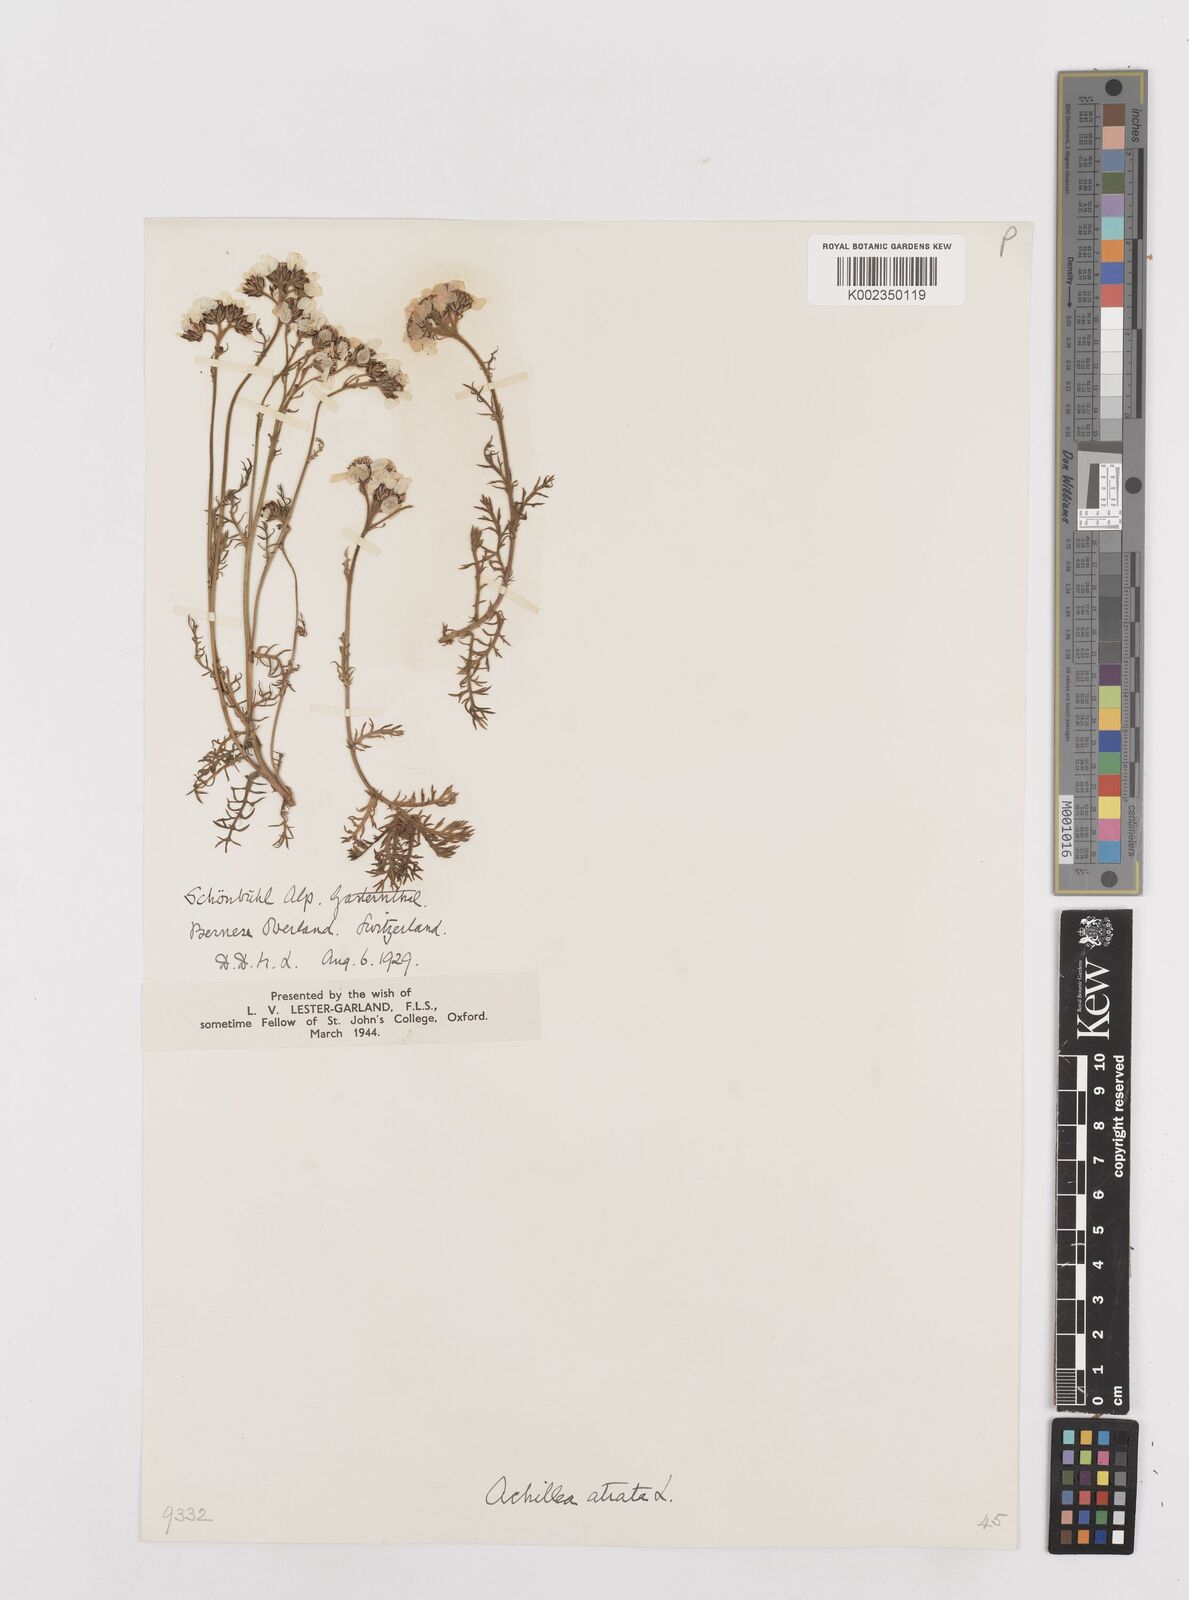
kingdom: Plantae
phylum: Tracheophyta
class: Magnoliopsida
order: Asterales
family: Asteraceae
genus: Achillea
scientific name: Achillea atrata
